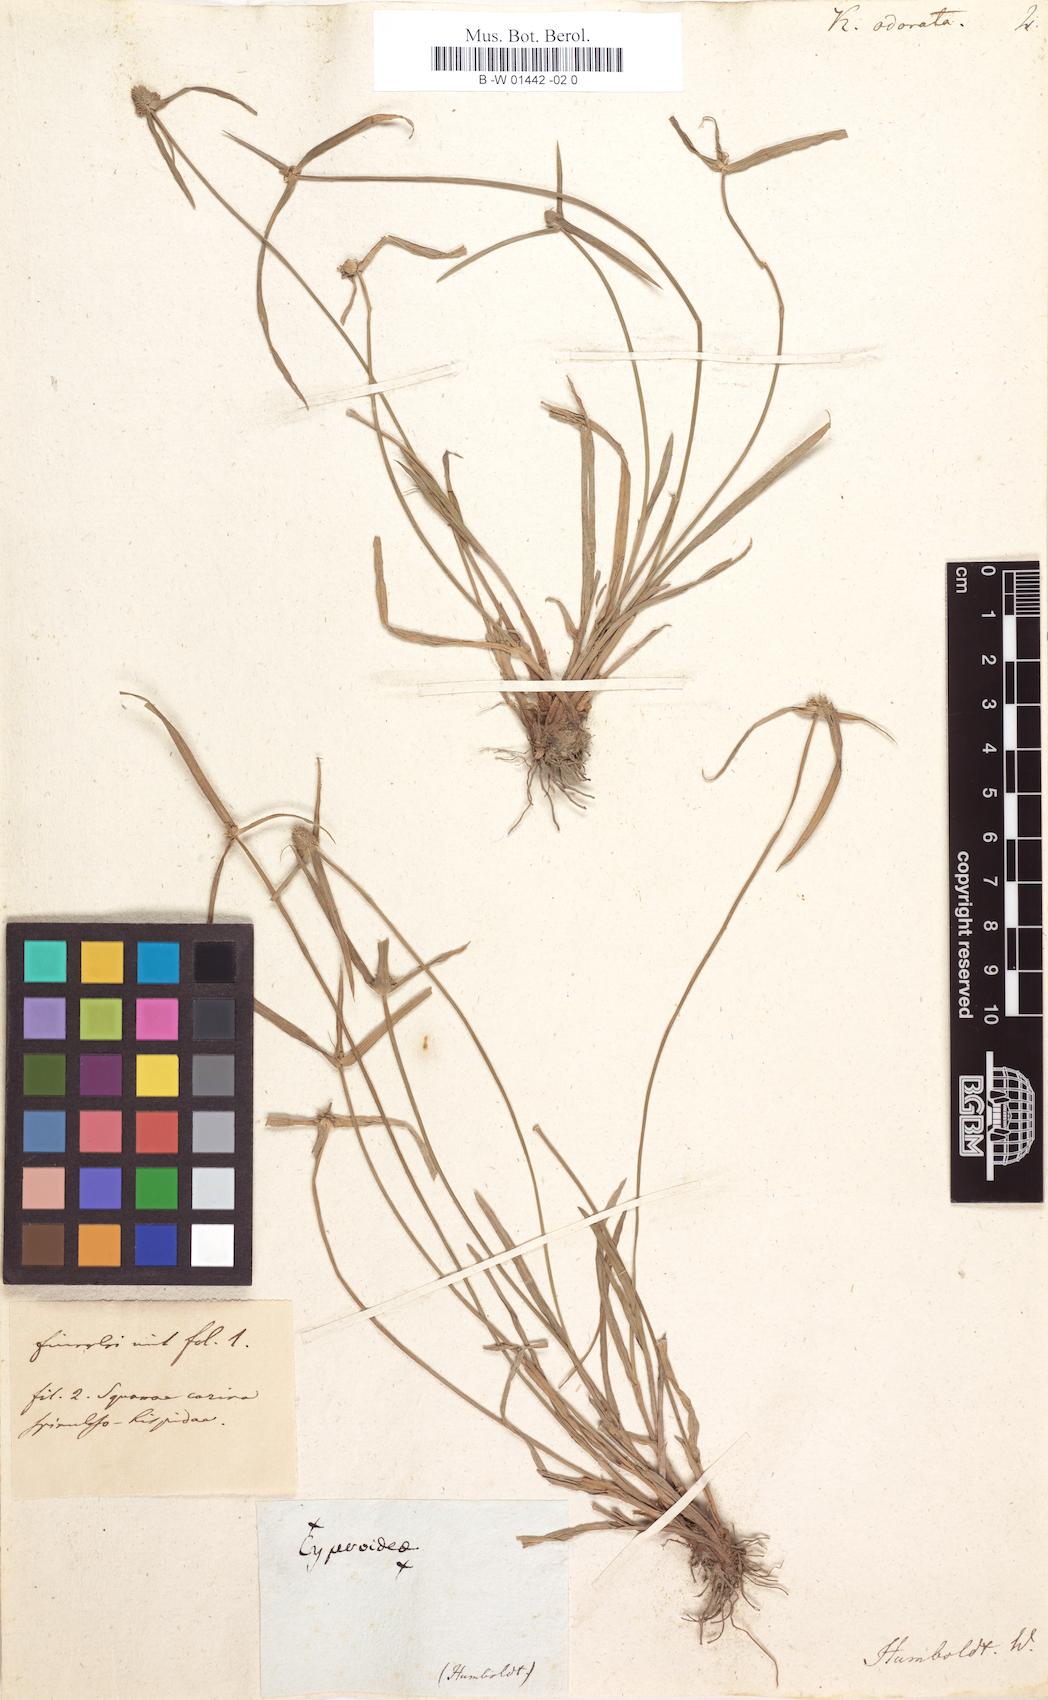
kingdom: Plantae
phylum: Tracheophyta
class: Liliopsida
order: Poales
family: Cyperaceae
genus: Cyperus
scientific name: Cyperus sesquiflorus
